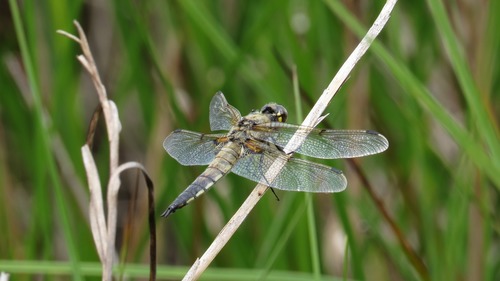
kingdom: Animalia
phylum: Arthropoda
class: Insecta
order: Odonata
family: Libellulidae
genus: Libellula
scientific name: Libellula quadrimaculata
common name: Four-spotted chaser
